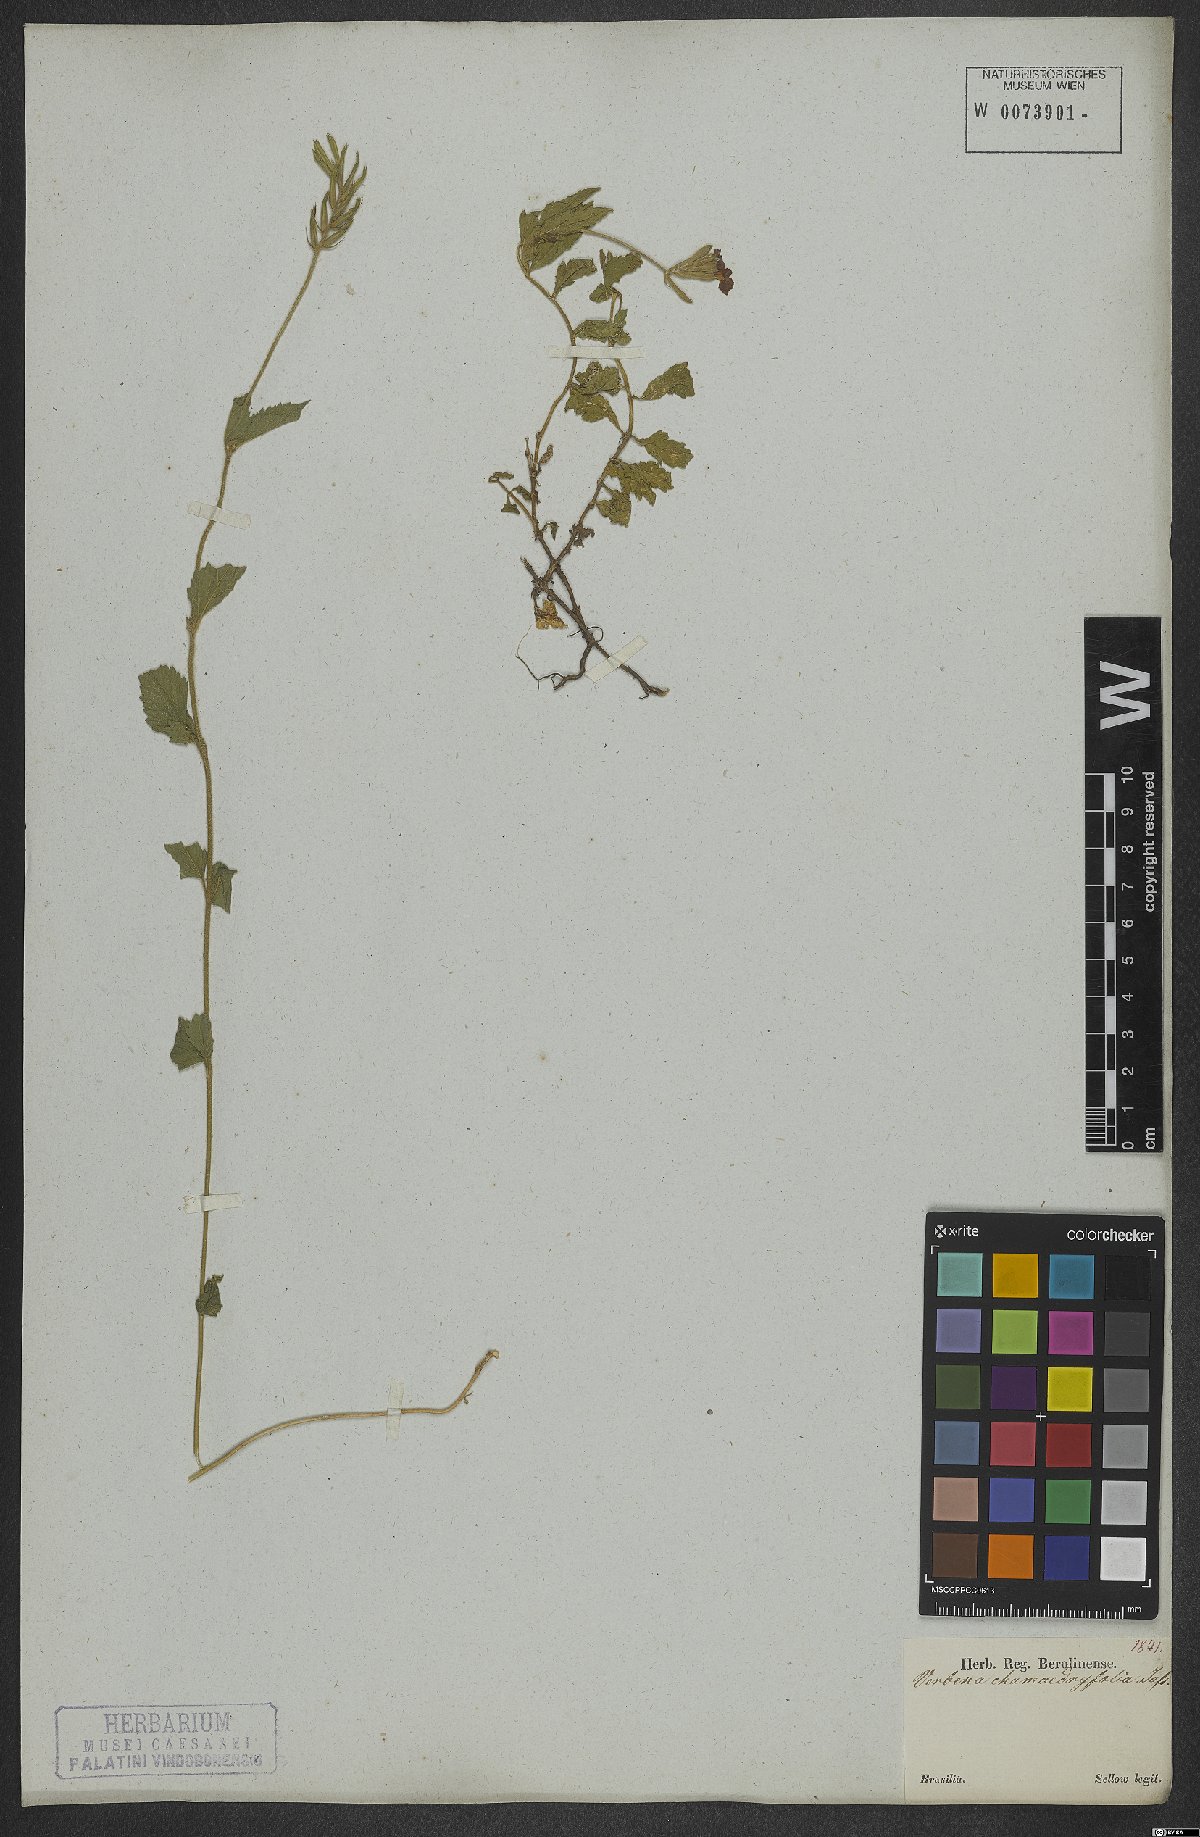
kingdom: Plantae
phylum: Tracheophyta
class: Magnoliopsida
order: Lamiales
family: Verbenaceae
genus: Verbena
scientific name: Verbena peruviana
